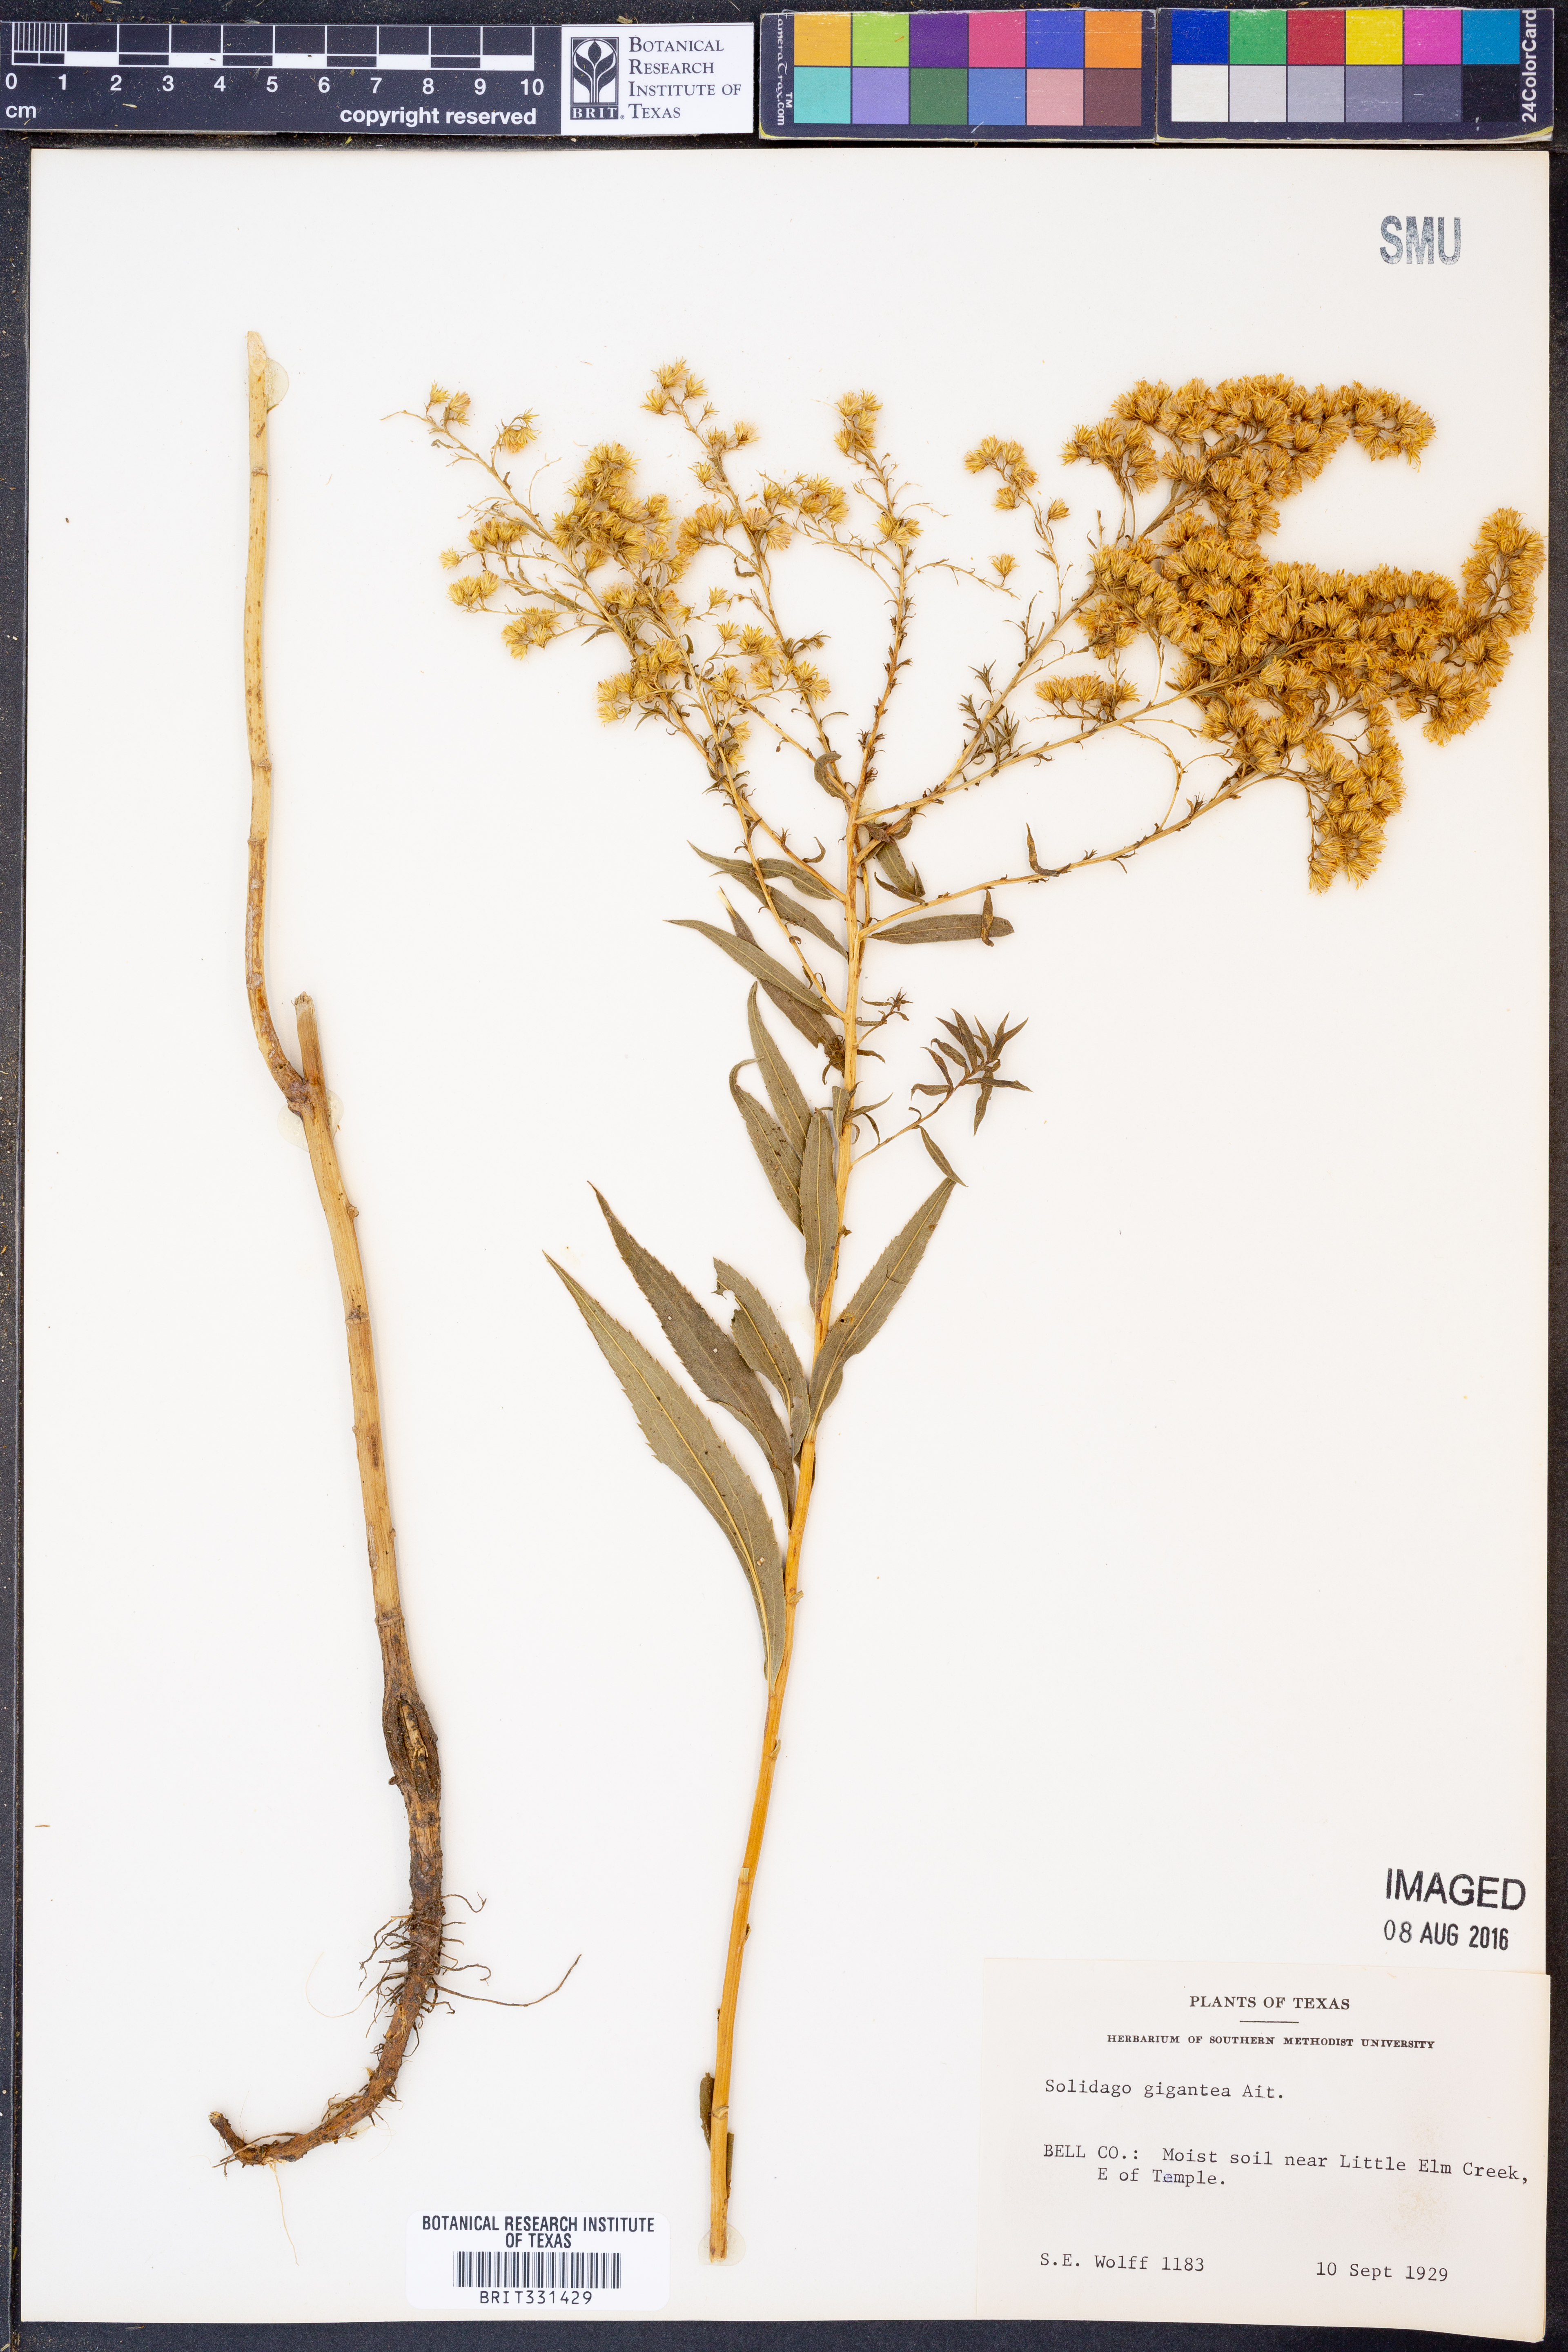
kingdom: Plantae
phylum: Tracheophyta
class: Magnoliopsida
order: Asterales
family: Asteraceae
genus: Solidago
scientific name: Solidago gigantea
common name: Giant goldenrod
